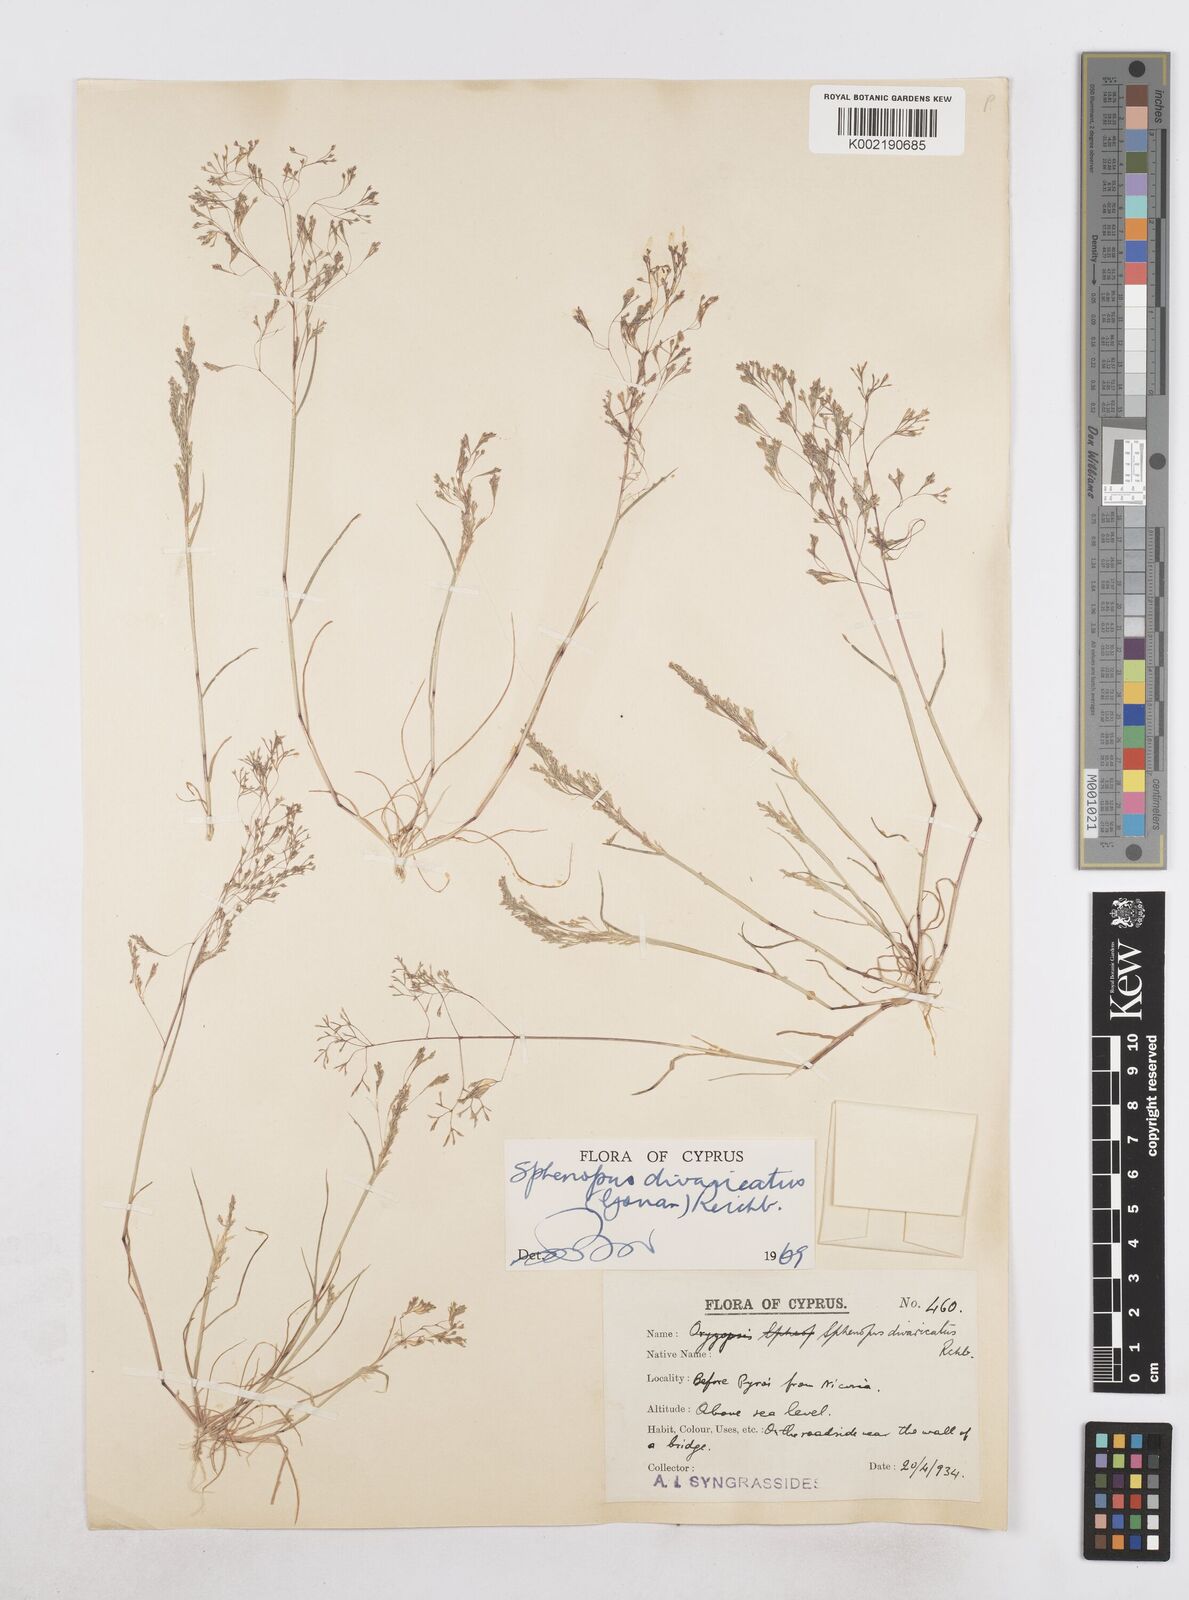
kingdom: Plantae
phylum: Tracheophyta
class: Liliopsida
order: Poales
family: Poaceae
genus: Sphenopus
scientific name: Sphenopus divaricatus
